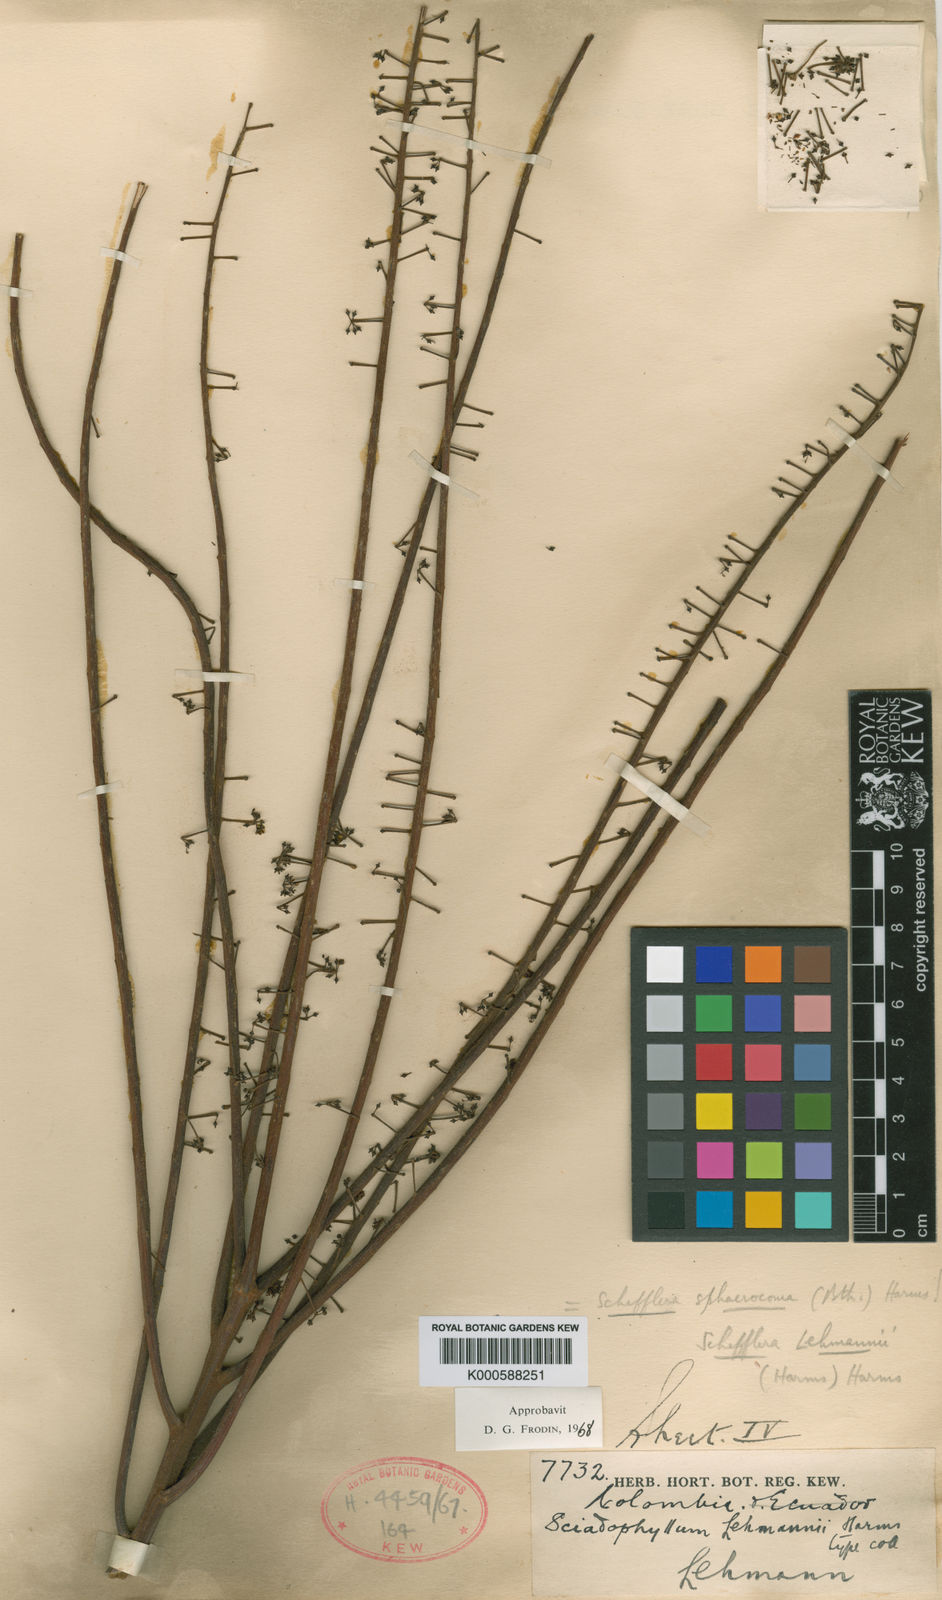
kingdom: Plantae
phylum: Tracheophyta
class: Magnoliopsida
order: Apiales
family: Araliaceae
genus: Sciodaphyllum
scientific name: Sciodaphyllum sphaerocoma
